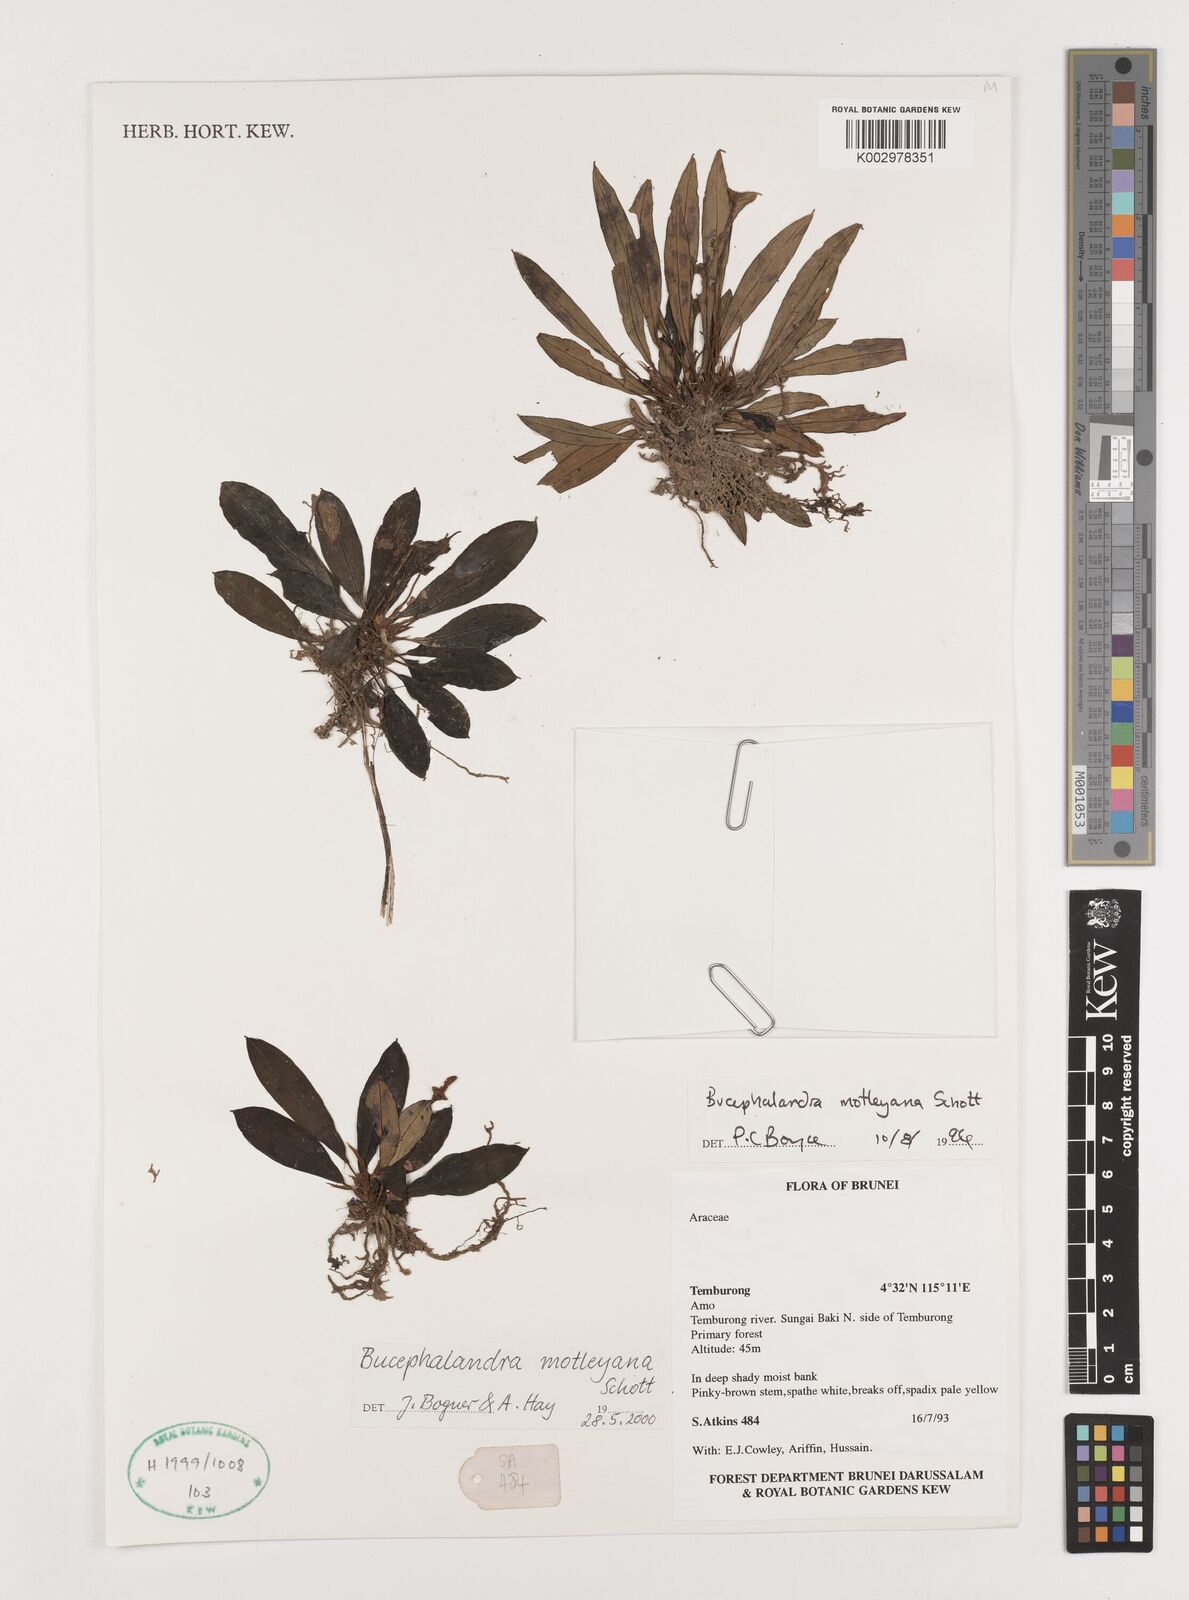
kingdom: Plantae
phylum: Tracheophyta
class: Liliopsida
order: Alismatales
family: Araceae
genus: Bucephalandra
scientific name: Bucephalandra motleyana
